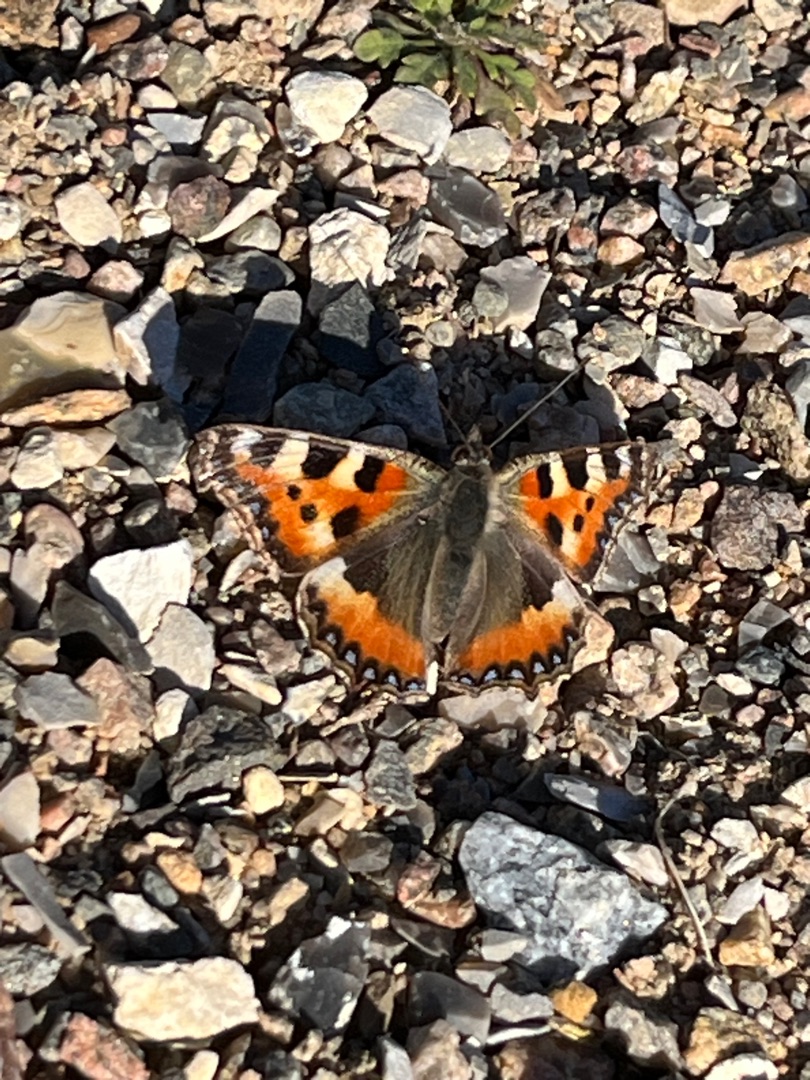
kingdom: Animalia
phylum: Arthropoda
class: Insecta
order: Lepidoptera
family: Nymphalidae
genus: Aglais
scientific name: Aglais urticae
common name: Nældens takvinge
